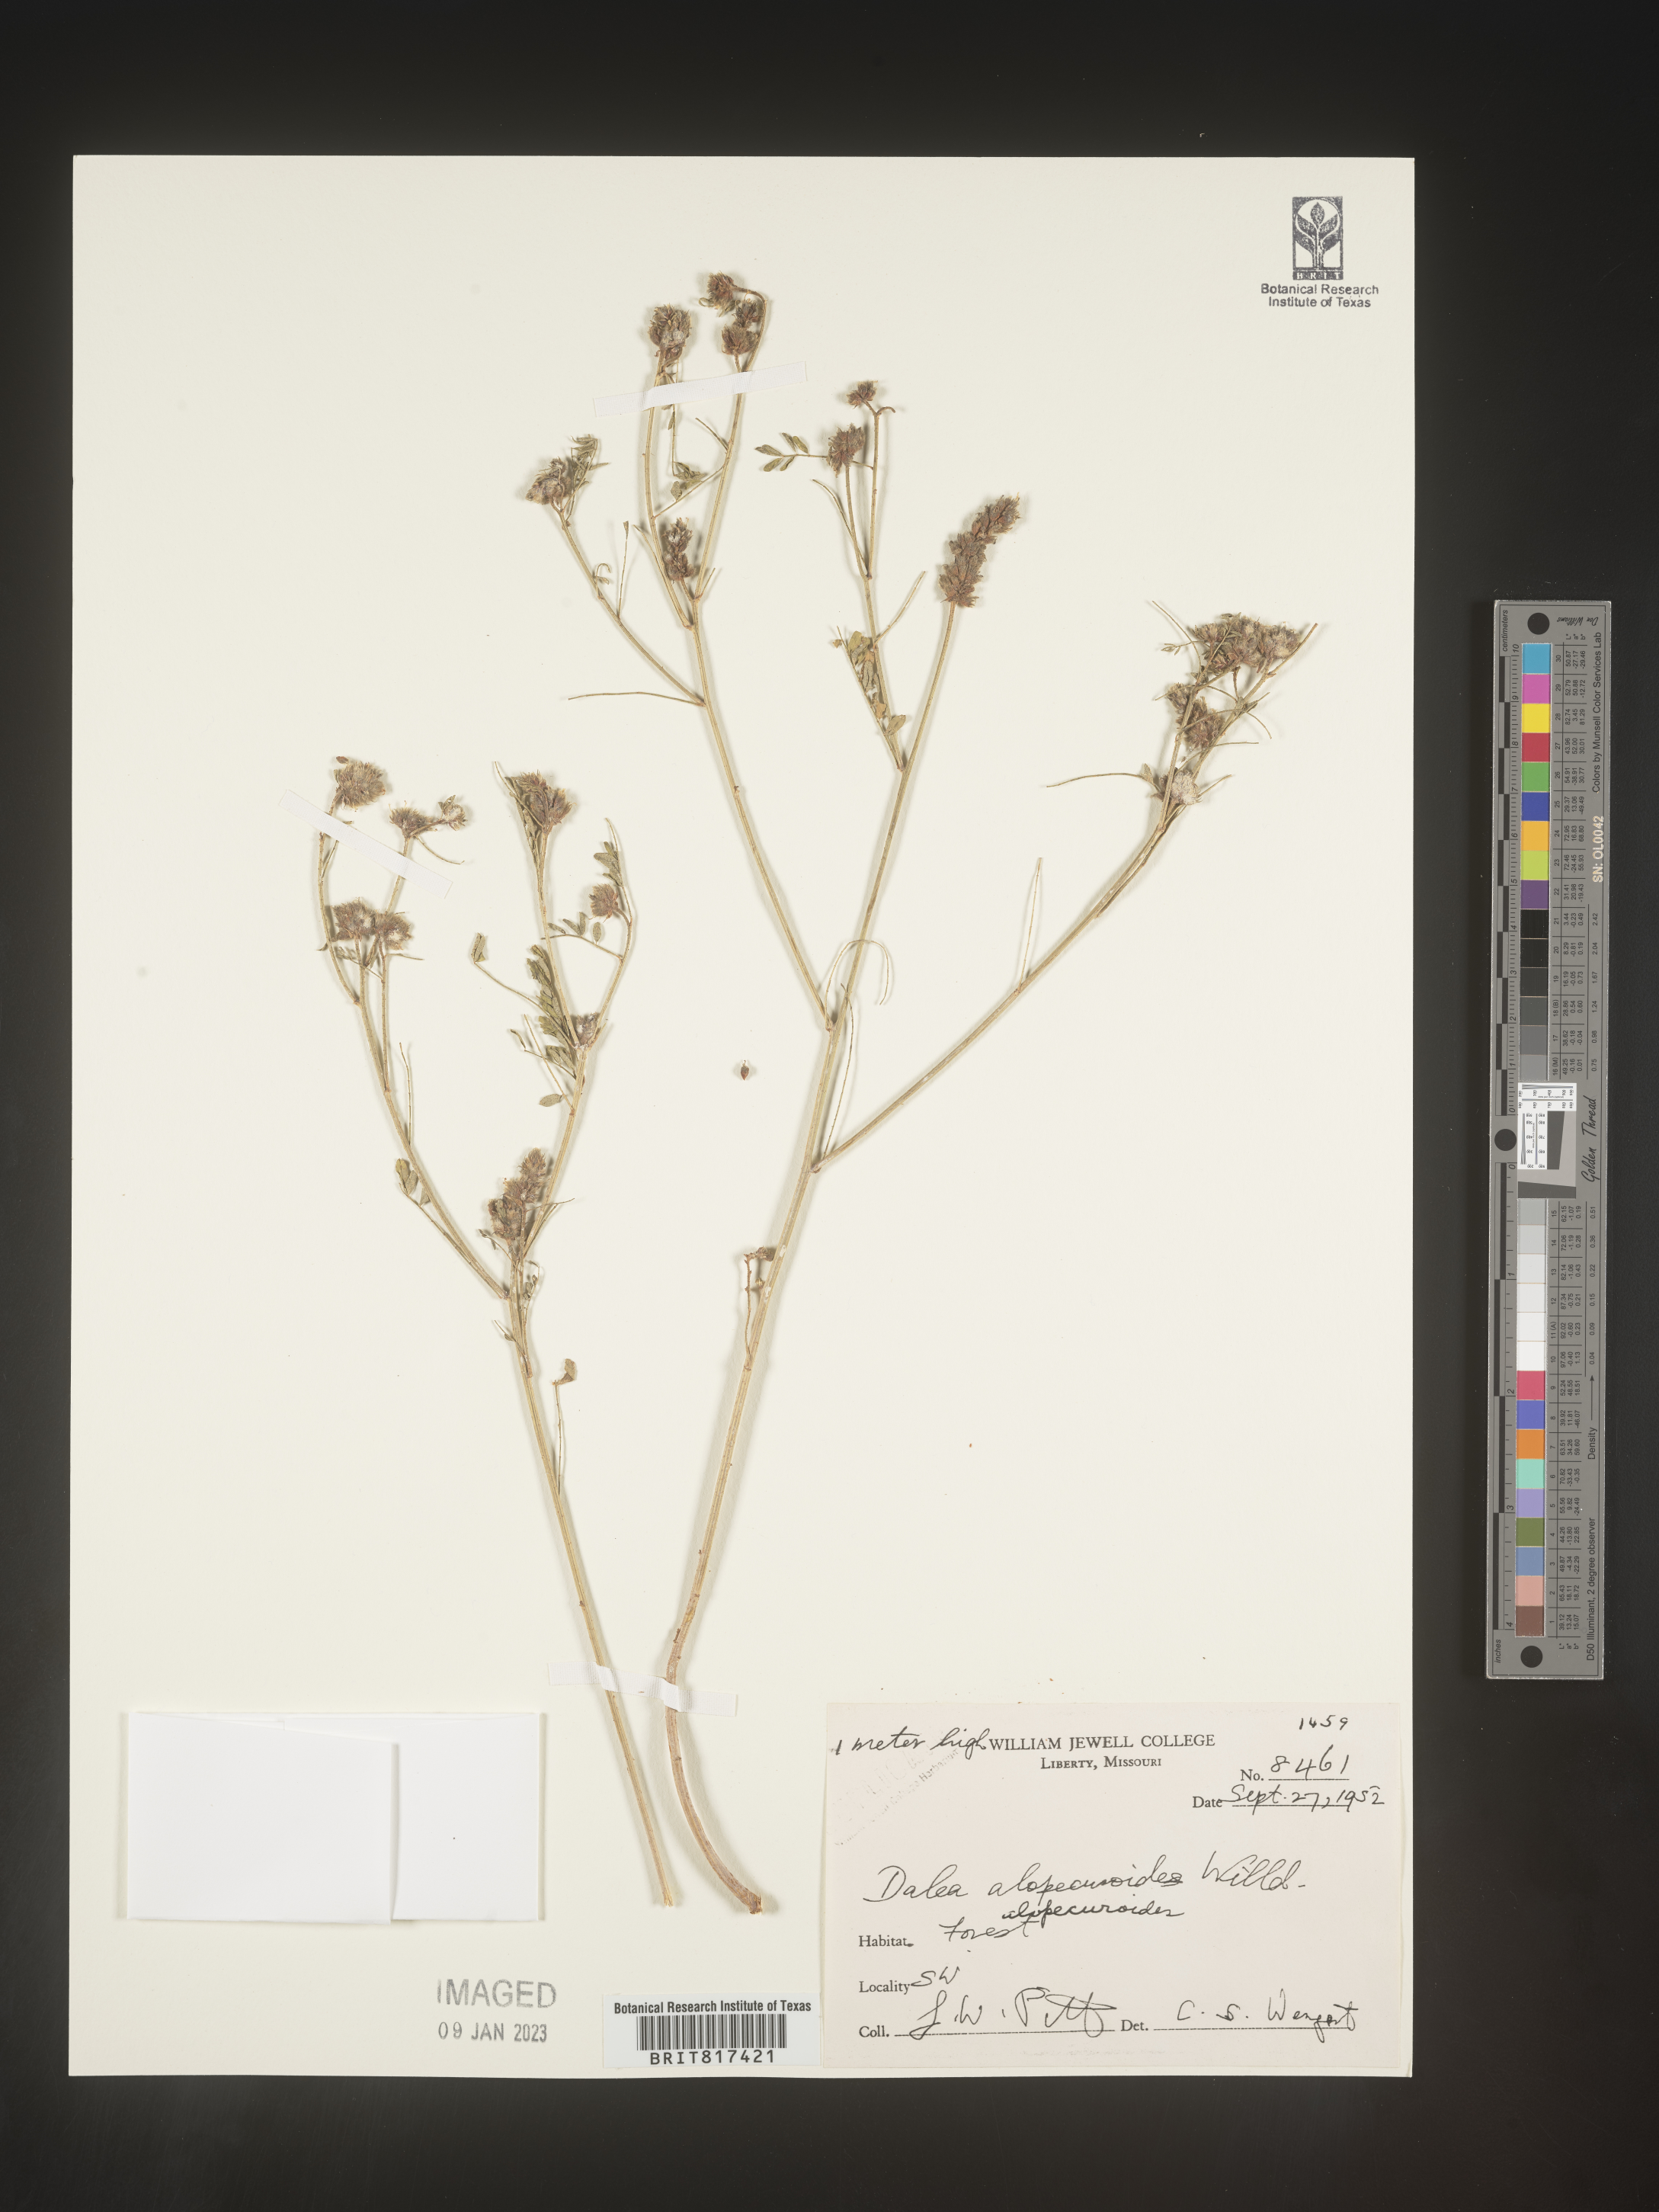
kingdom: Plantae
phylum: Tracheophyta
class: Magnoliopsida
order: Fabales
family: Fabaceae
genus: Dalea
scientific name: Dalea
